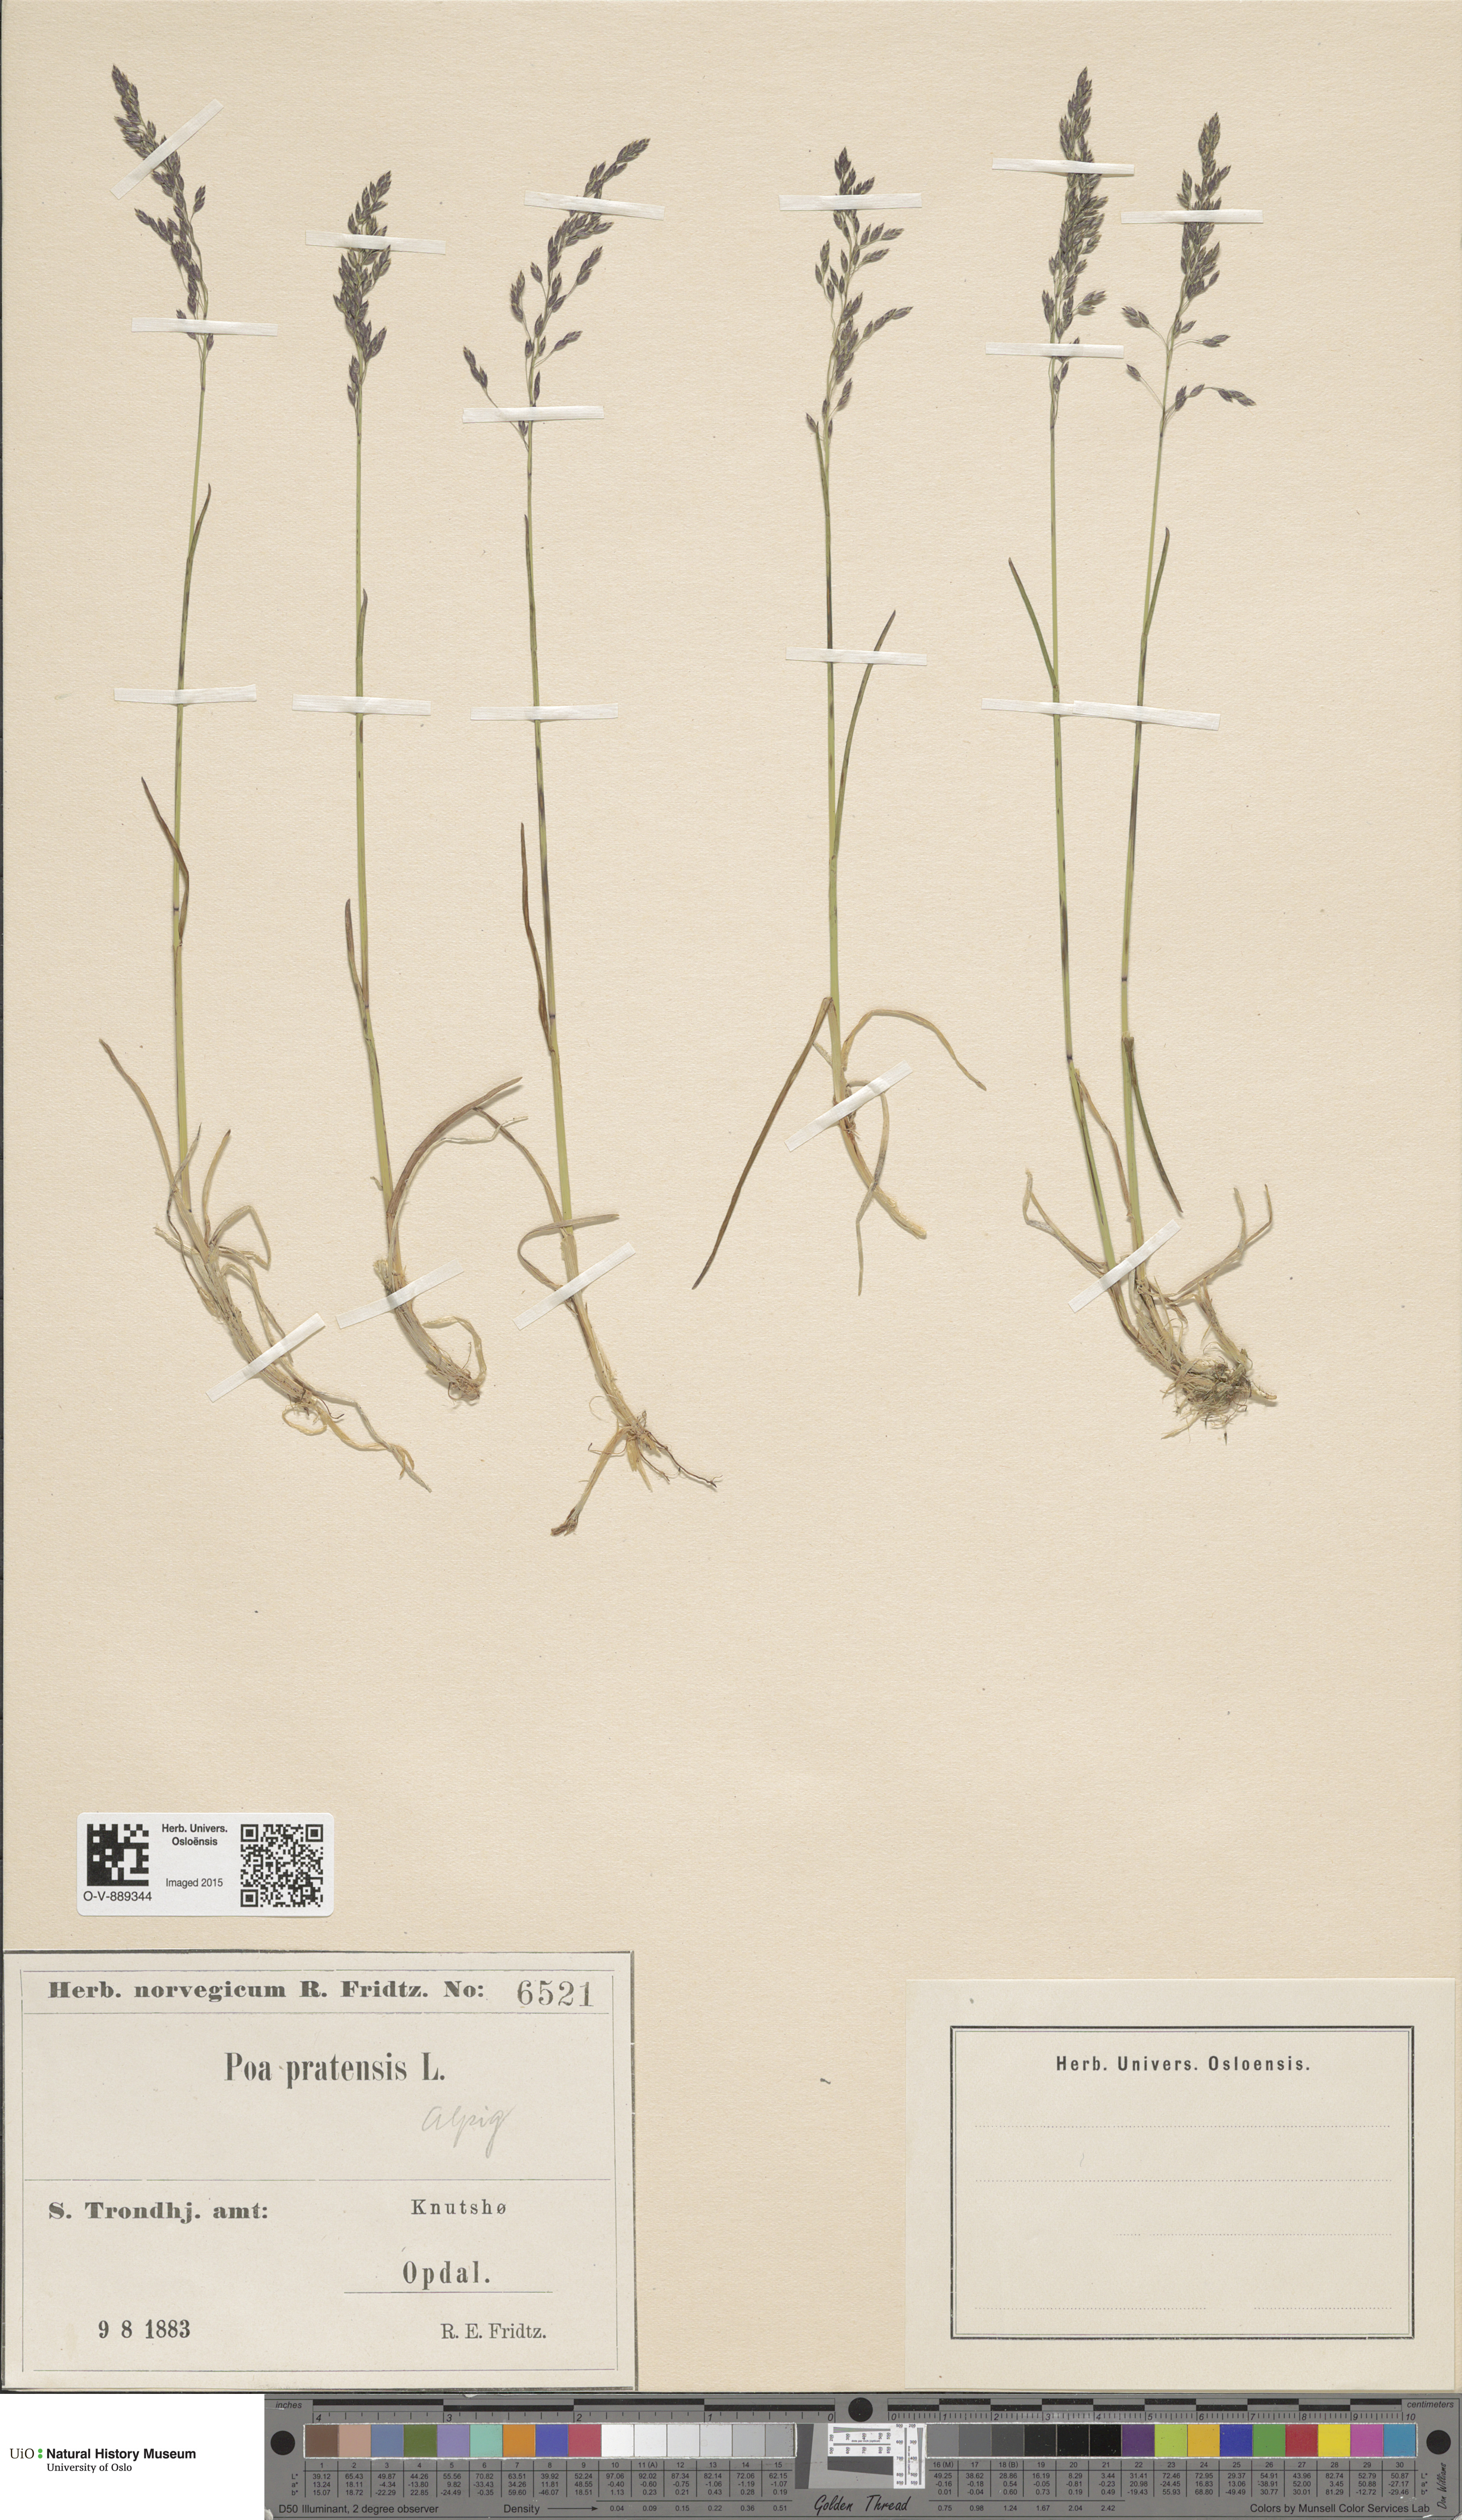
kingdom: Plantae
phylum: Tracheophyta
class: Liliopsida
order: Poales
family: Poaceae
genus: Poa
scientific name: Poa alpigena
